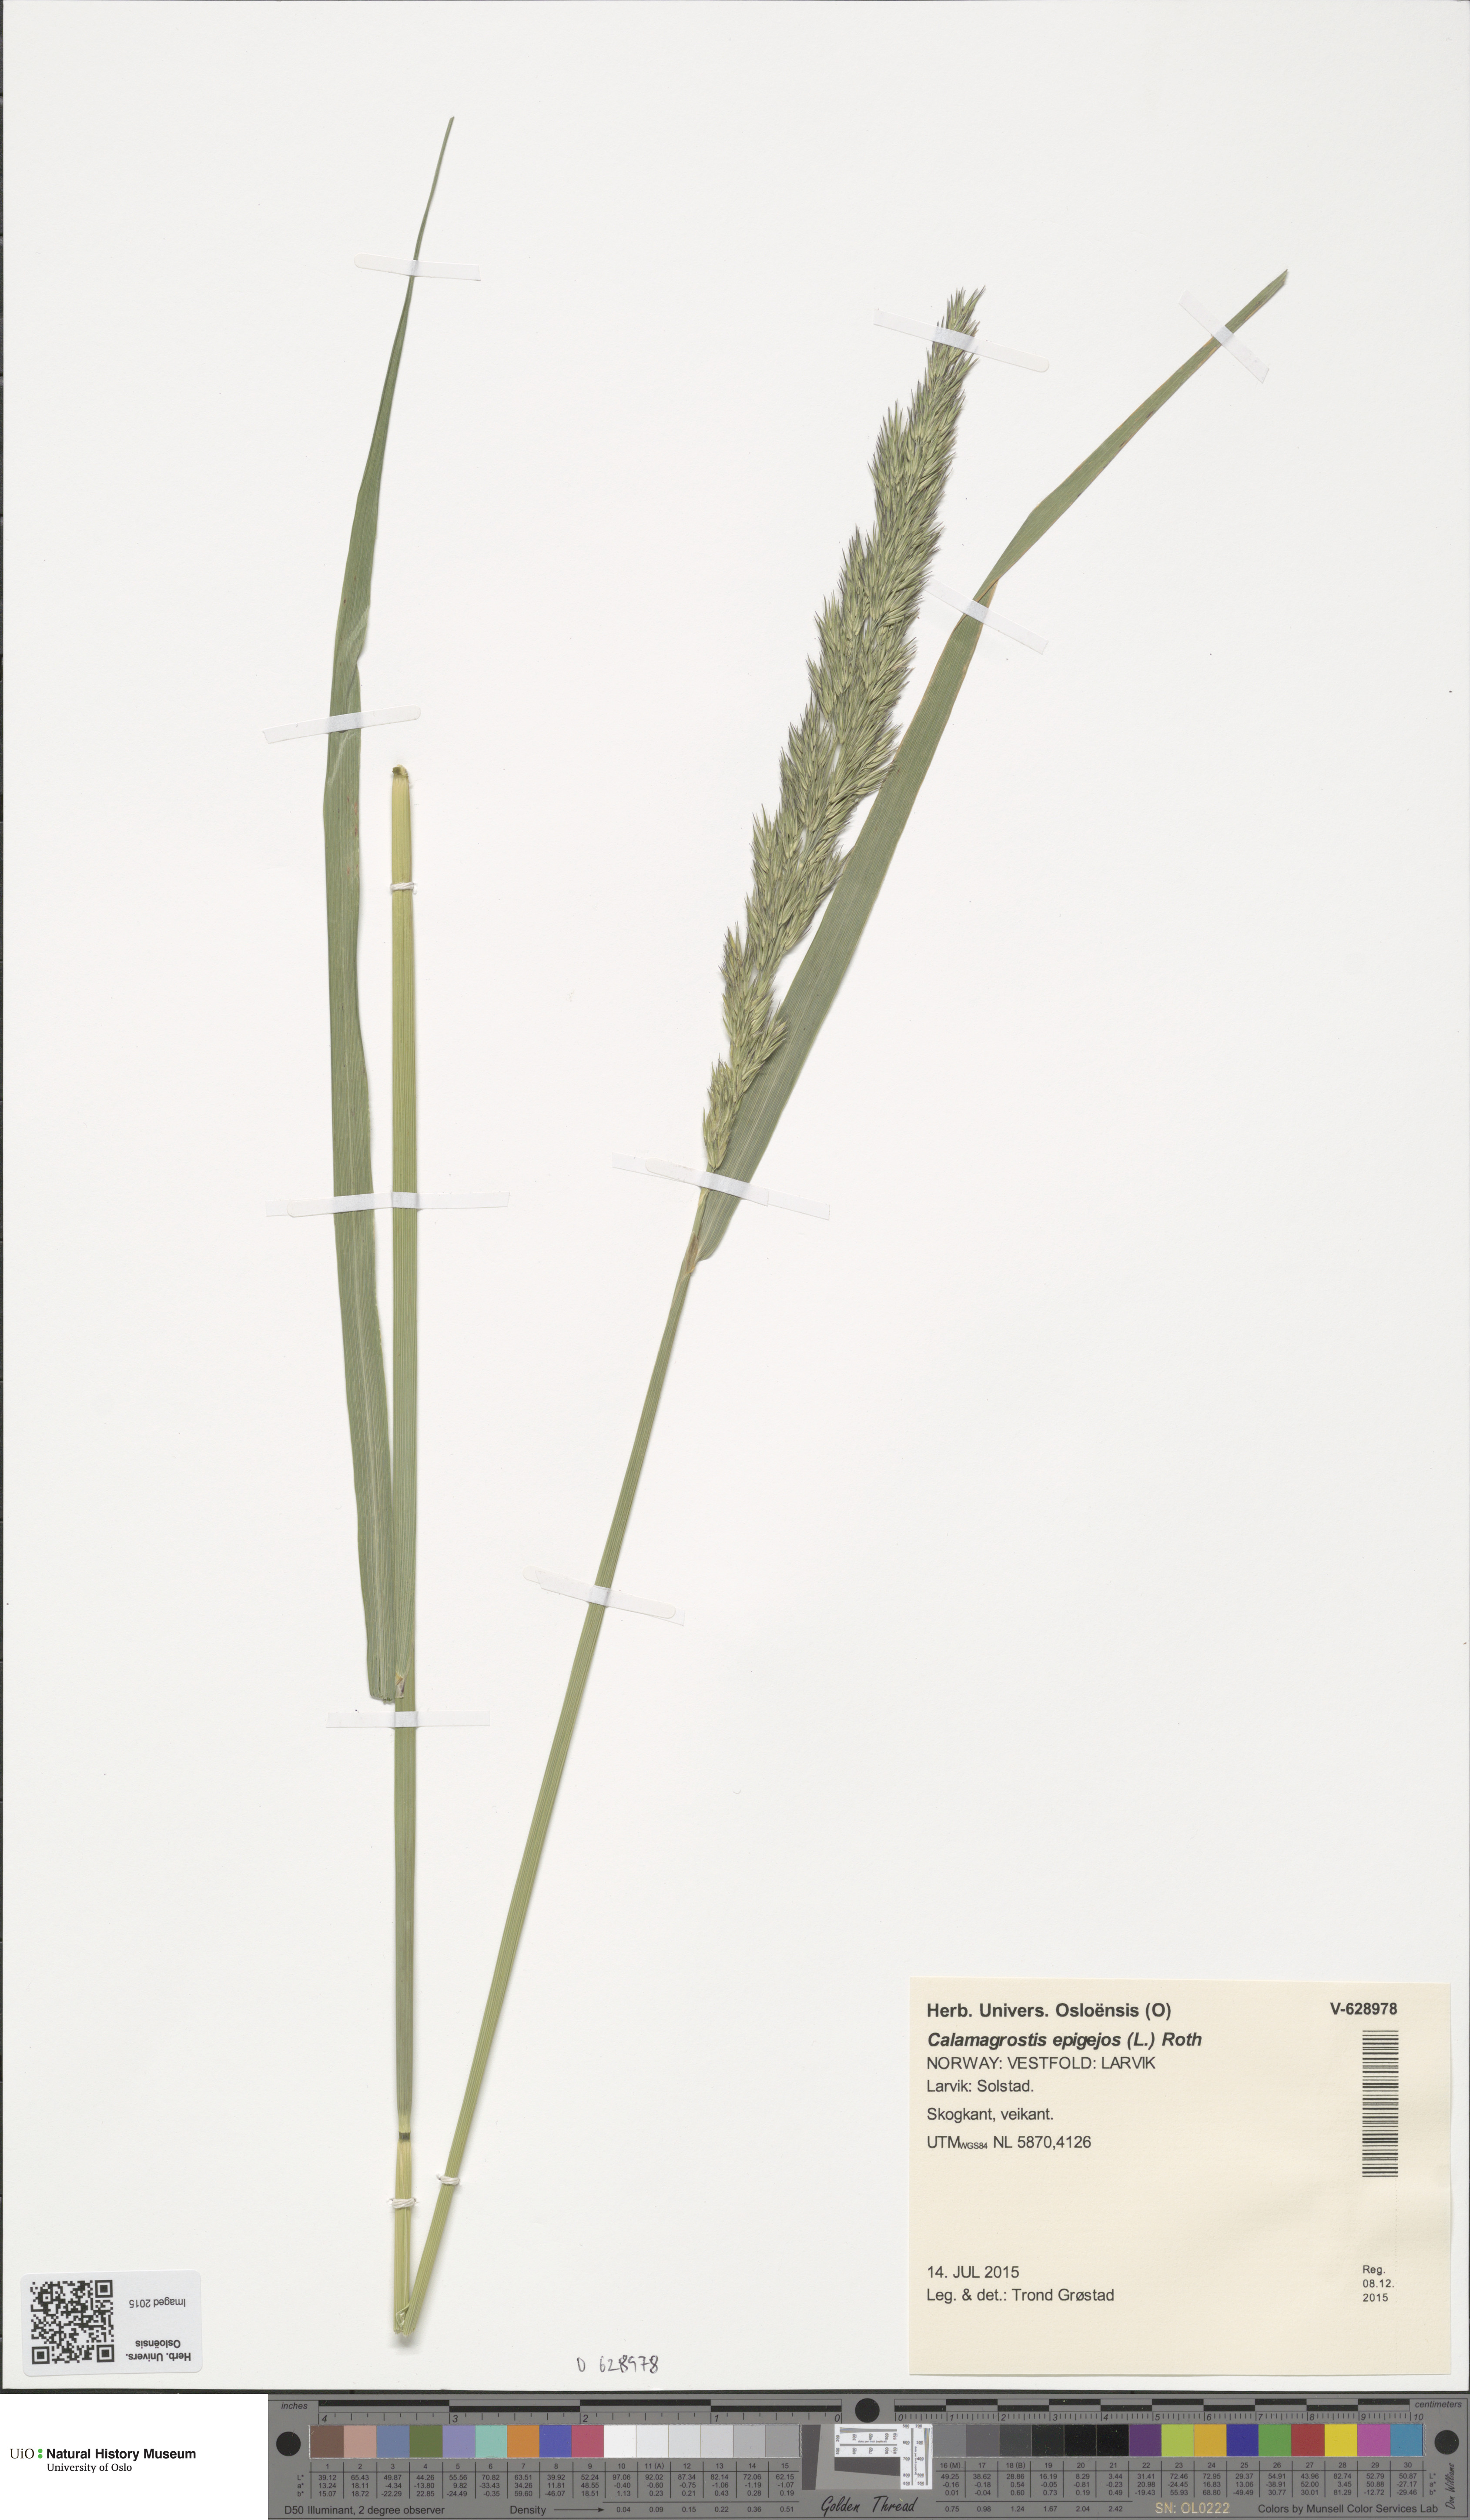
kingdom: Plantae
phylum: Tracheophyta
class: Liliopsida
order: Poales
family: Poaceae
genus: Calamagrostis
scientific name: Calamagrostis epigejos
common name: Wood small-reed
